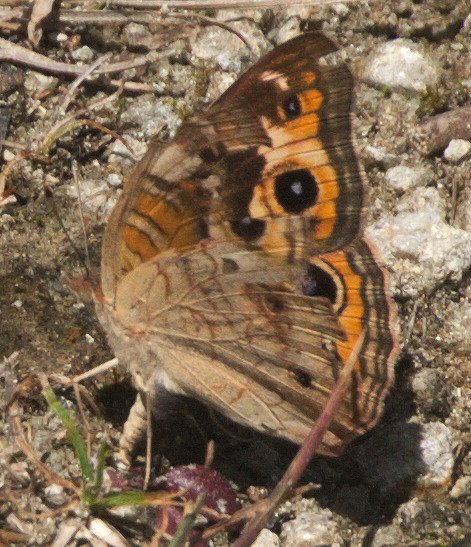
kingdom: Animalia
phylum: Arthropoda
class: Insecta
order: Lepidoptera
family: Nymphalidae
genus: Junonia
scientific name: Junonia coenia
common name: Common Buckeye
